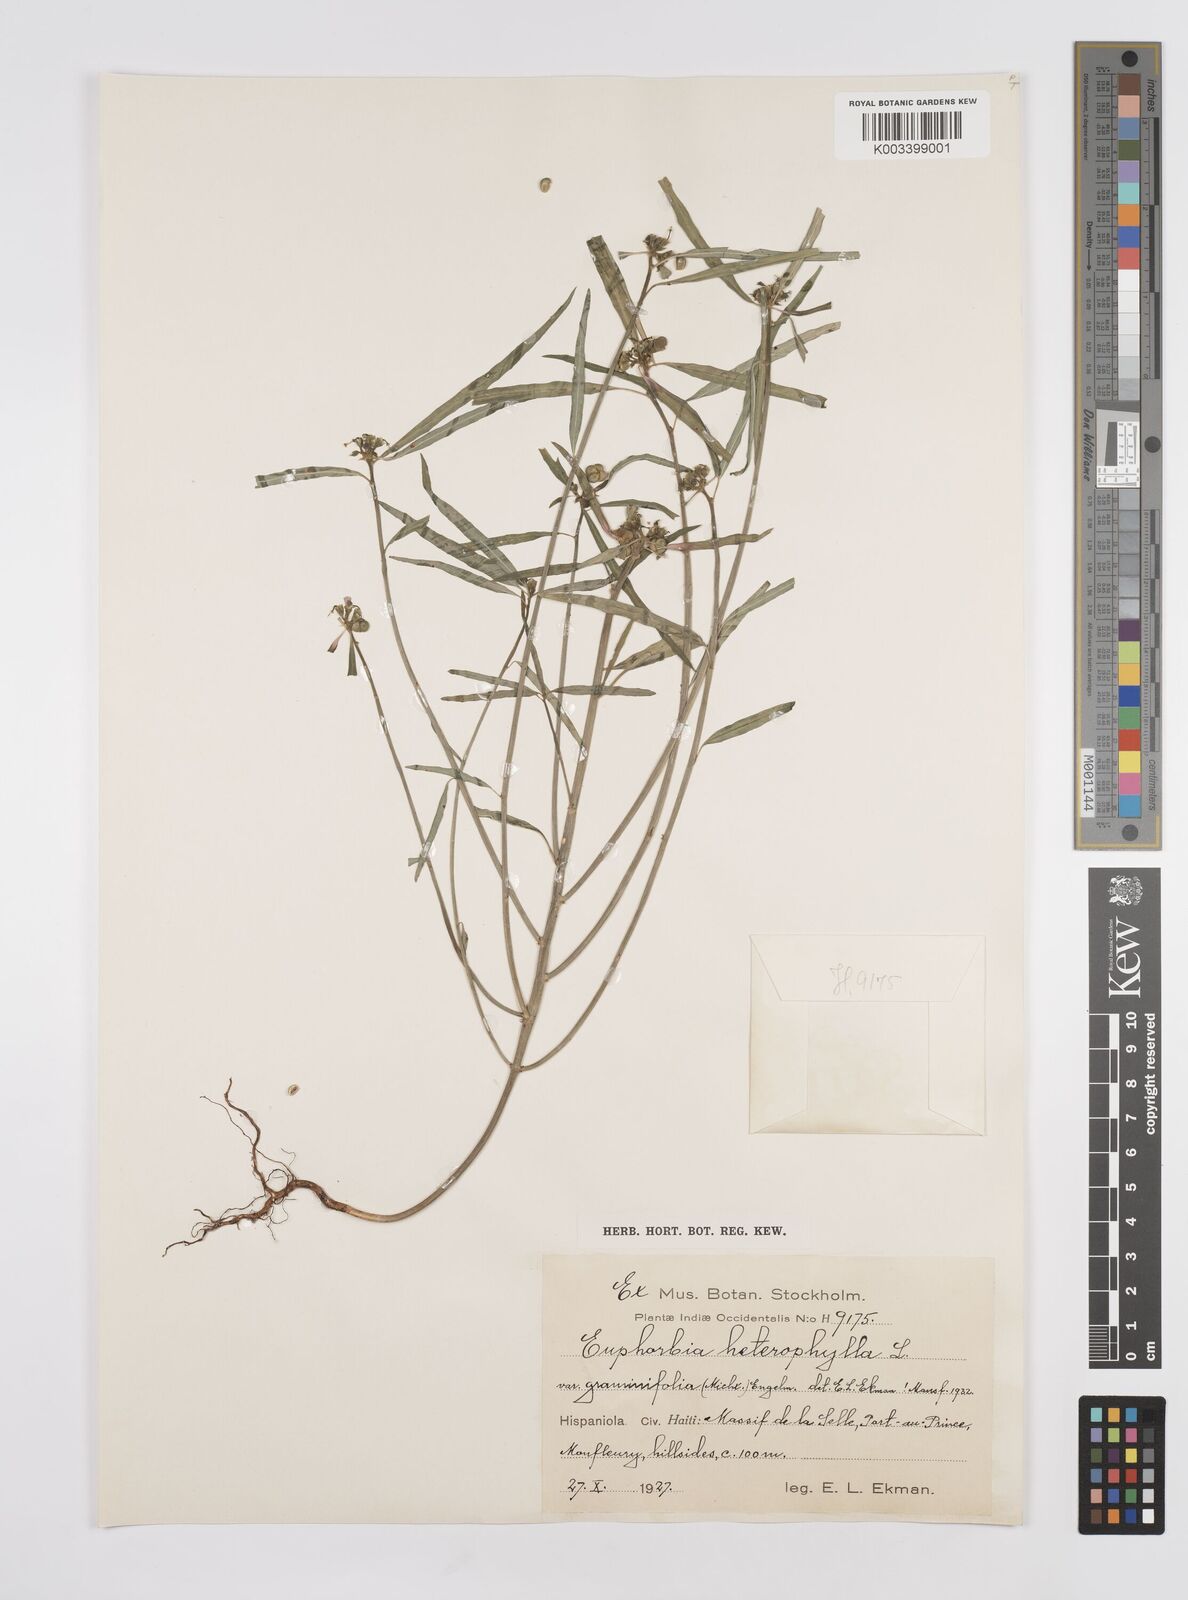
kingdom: Plantae
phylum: Tracheophyta
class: Magnoliopsida
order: Malpighiales
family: Euphorbiaceae
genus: Euphorbia
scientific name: Euphorbia heterophylla
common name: Mexican fireplant
